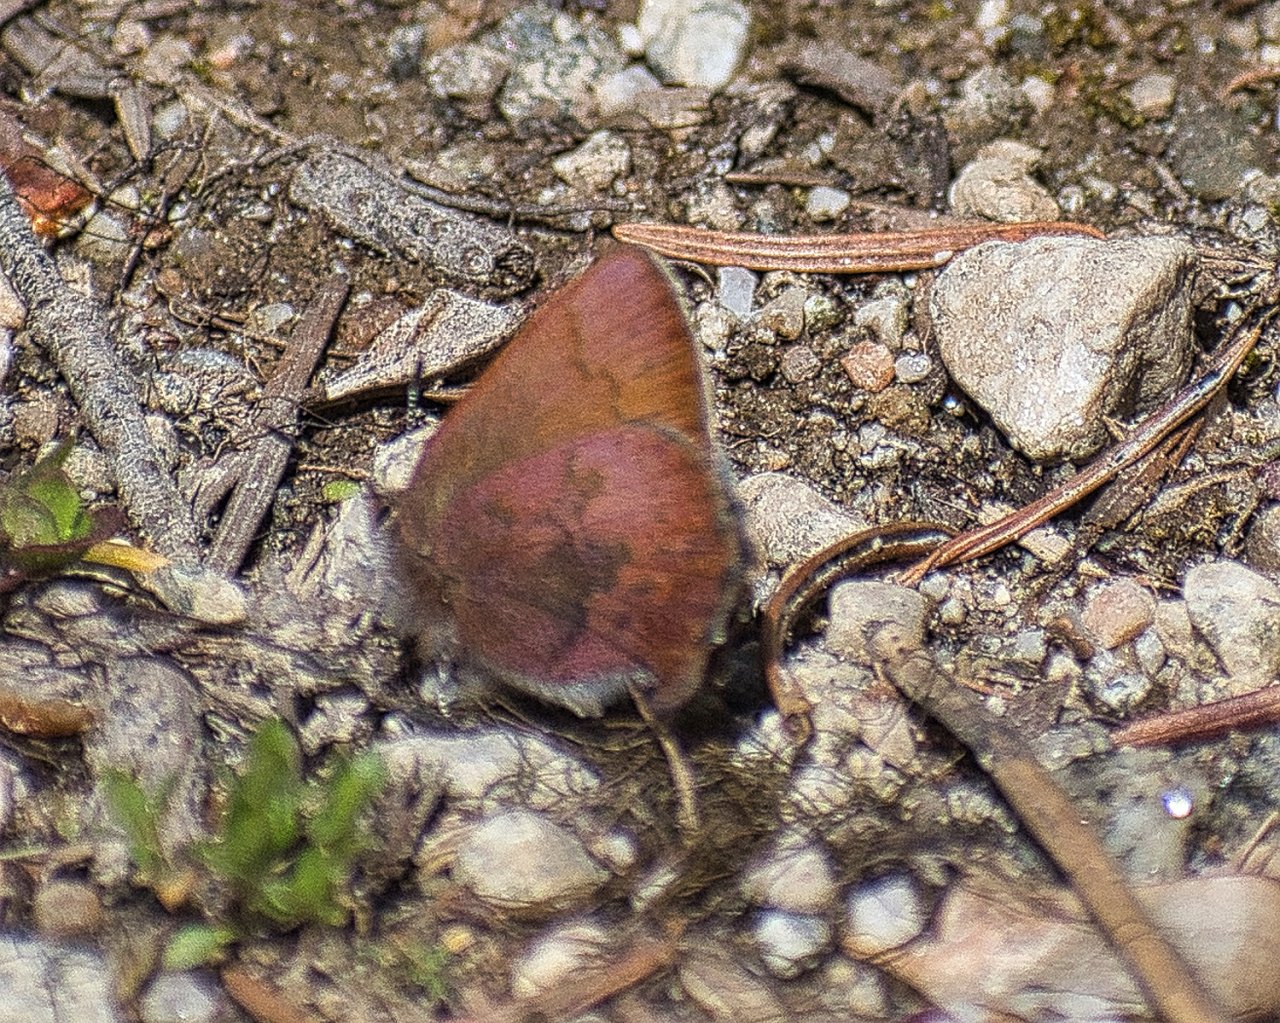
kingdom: Animalia
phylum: Arthropoda
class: Insecta
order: Lepidoptera
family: Lycaenidae
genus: Incisalia
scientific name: Incisalia irioides
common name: Brown Elfin
